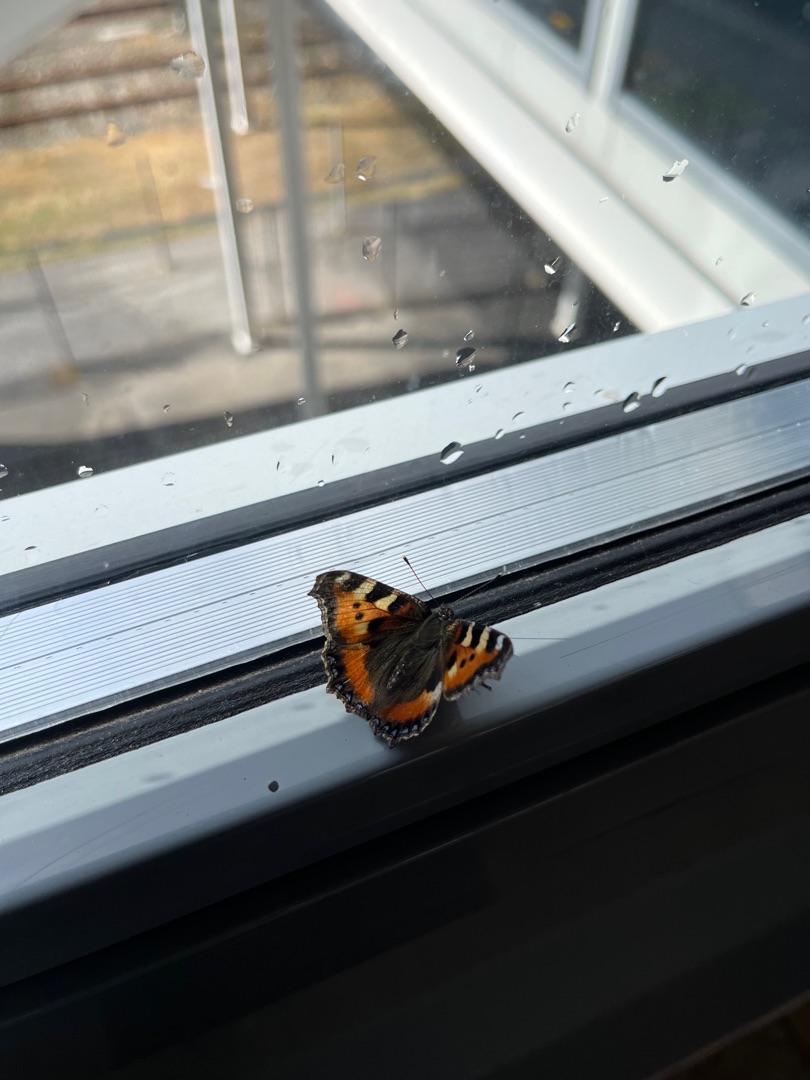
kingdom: Animalia
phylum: Arthropoda
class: Insecta
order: Lepidoptera
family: Nymphalidae
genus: Aglais
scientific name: Aglais urticae
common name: Nældens takvinge
